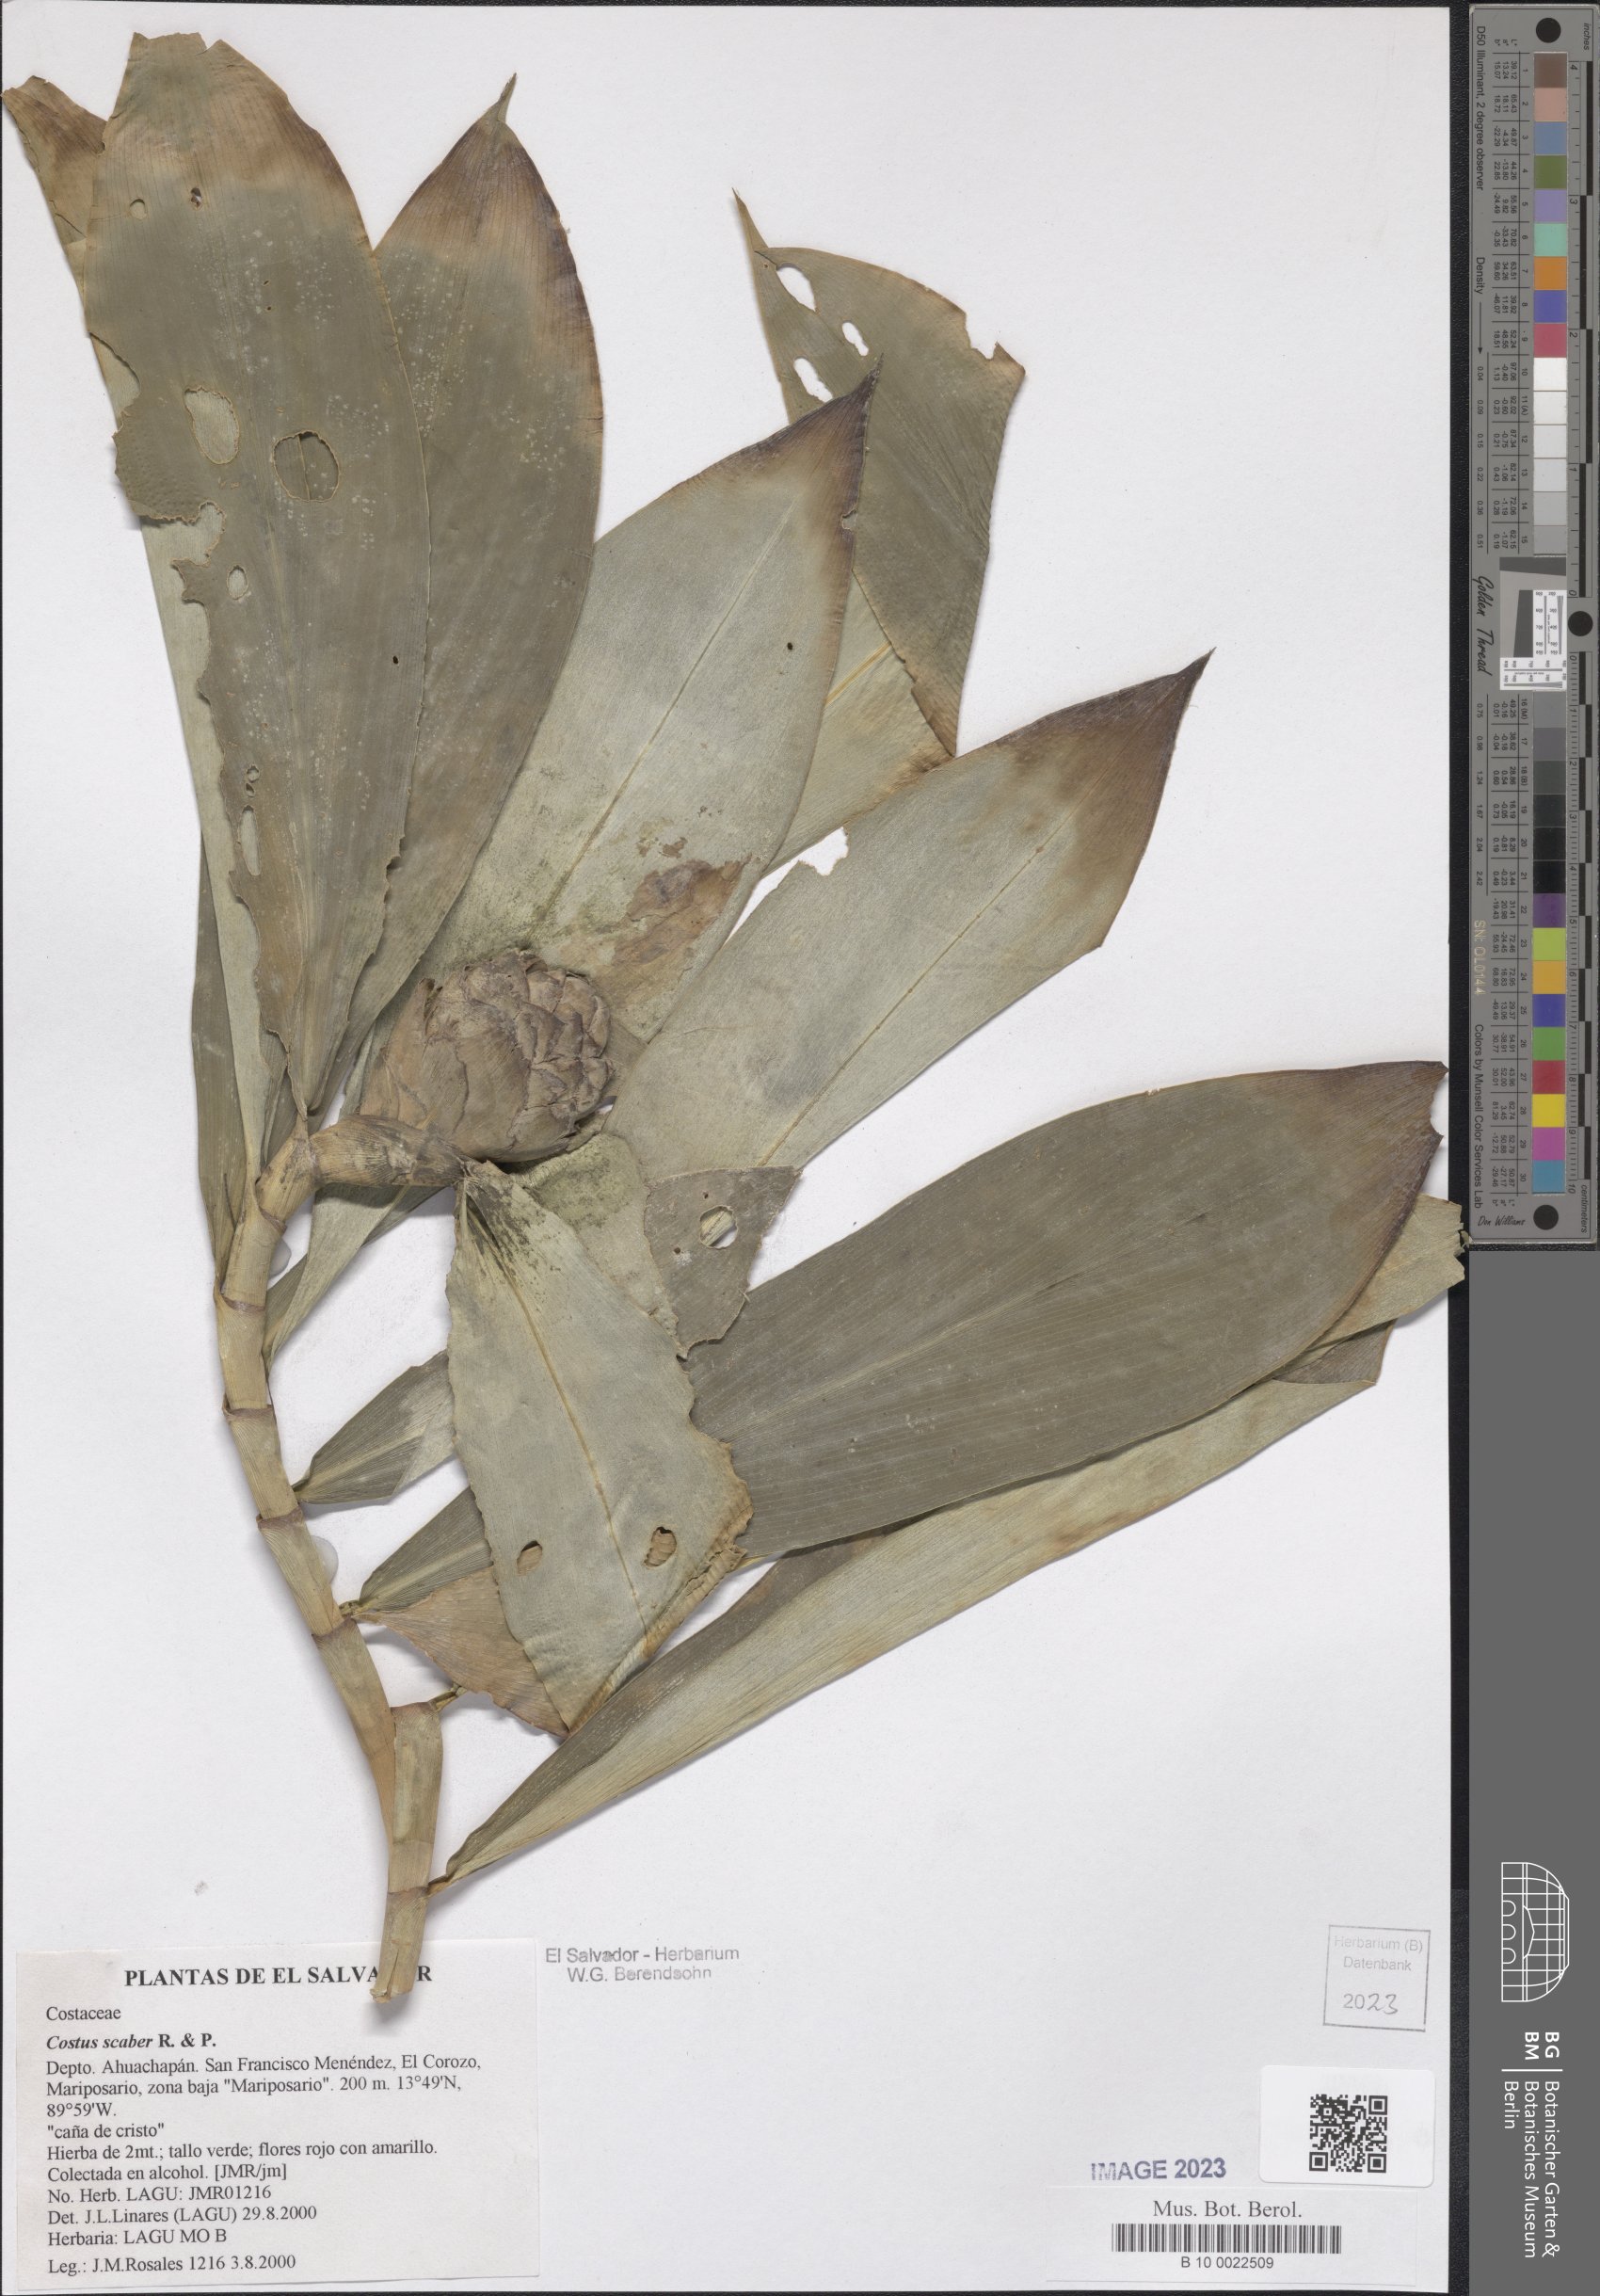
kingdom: Plantae
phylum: Tracheophyta
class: Liliopsida
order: Zingiberales
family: Costaceae
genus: Costus
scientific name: Costus scaber
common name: Spiral head ginger
